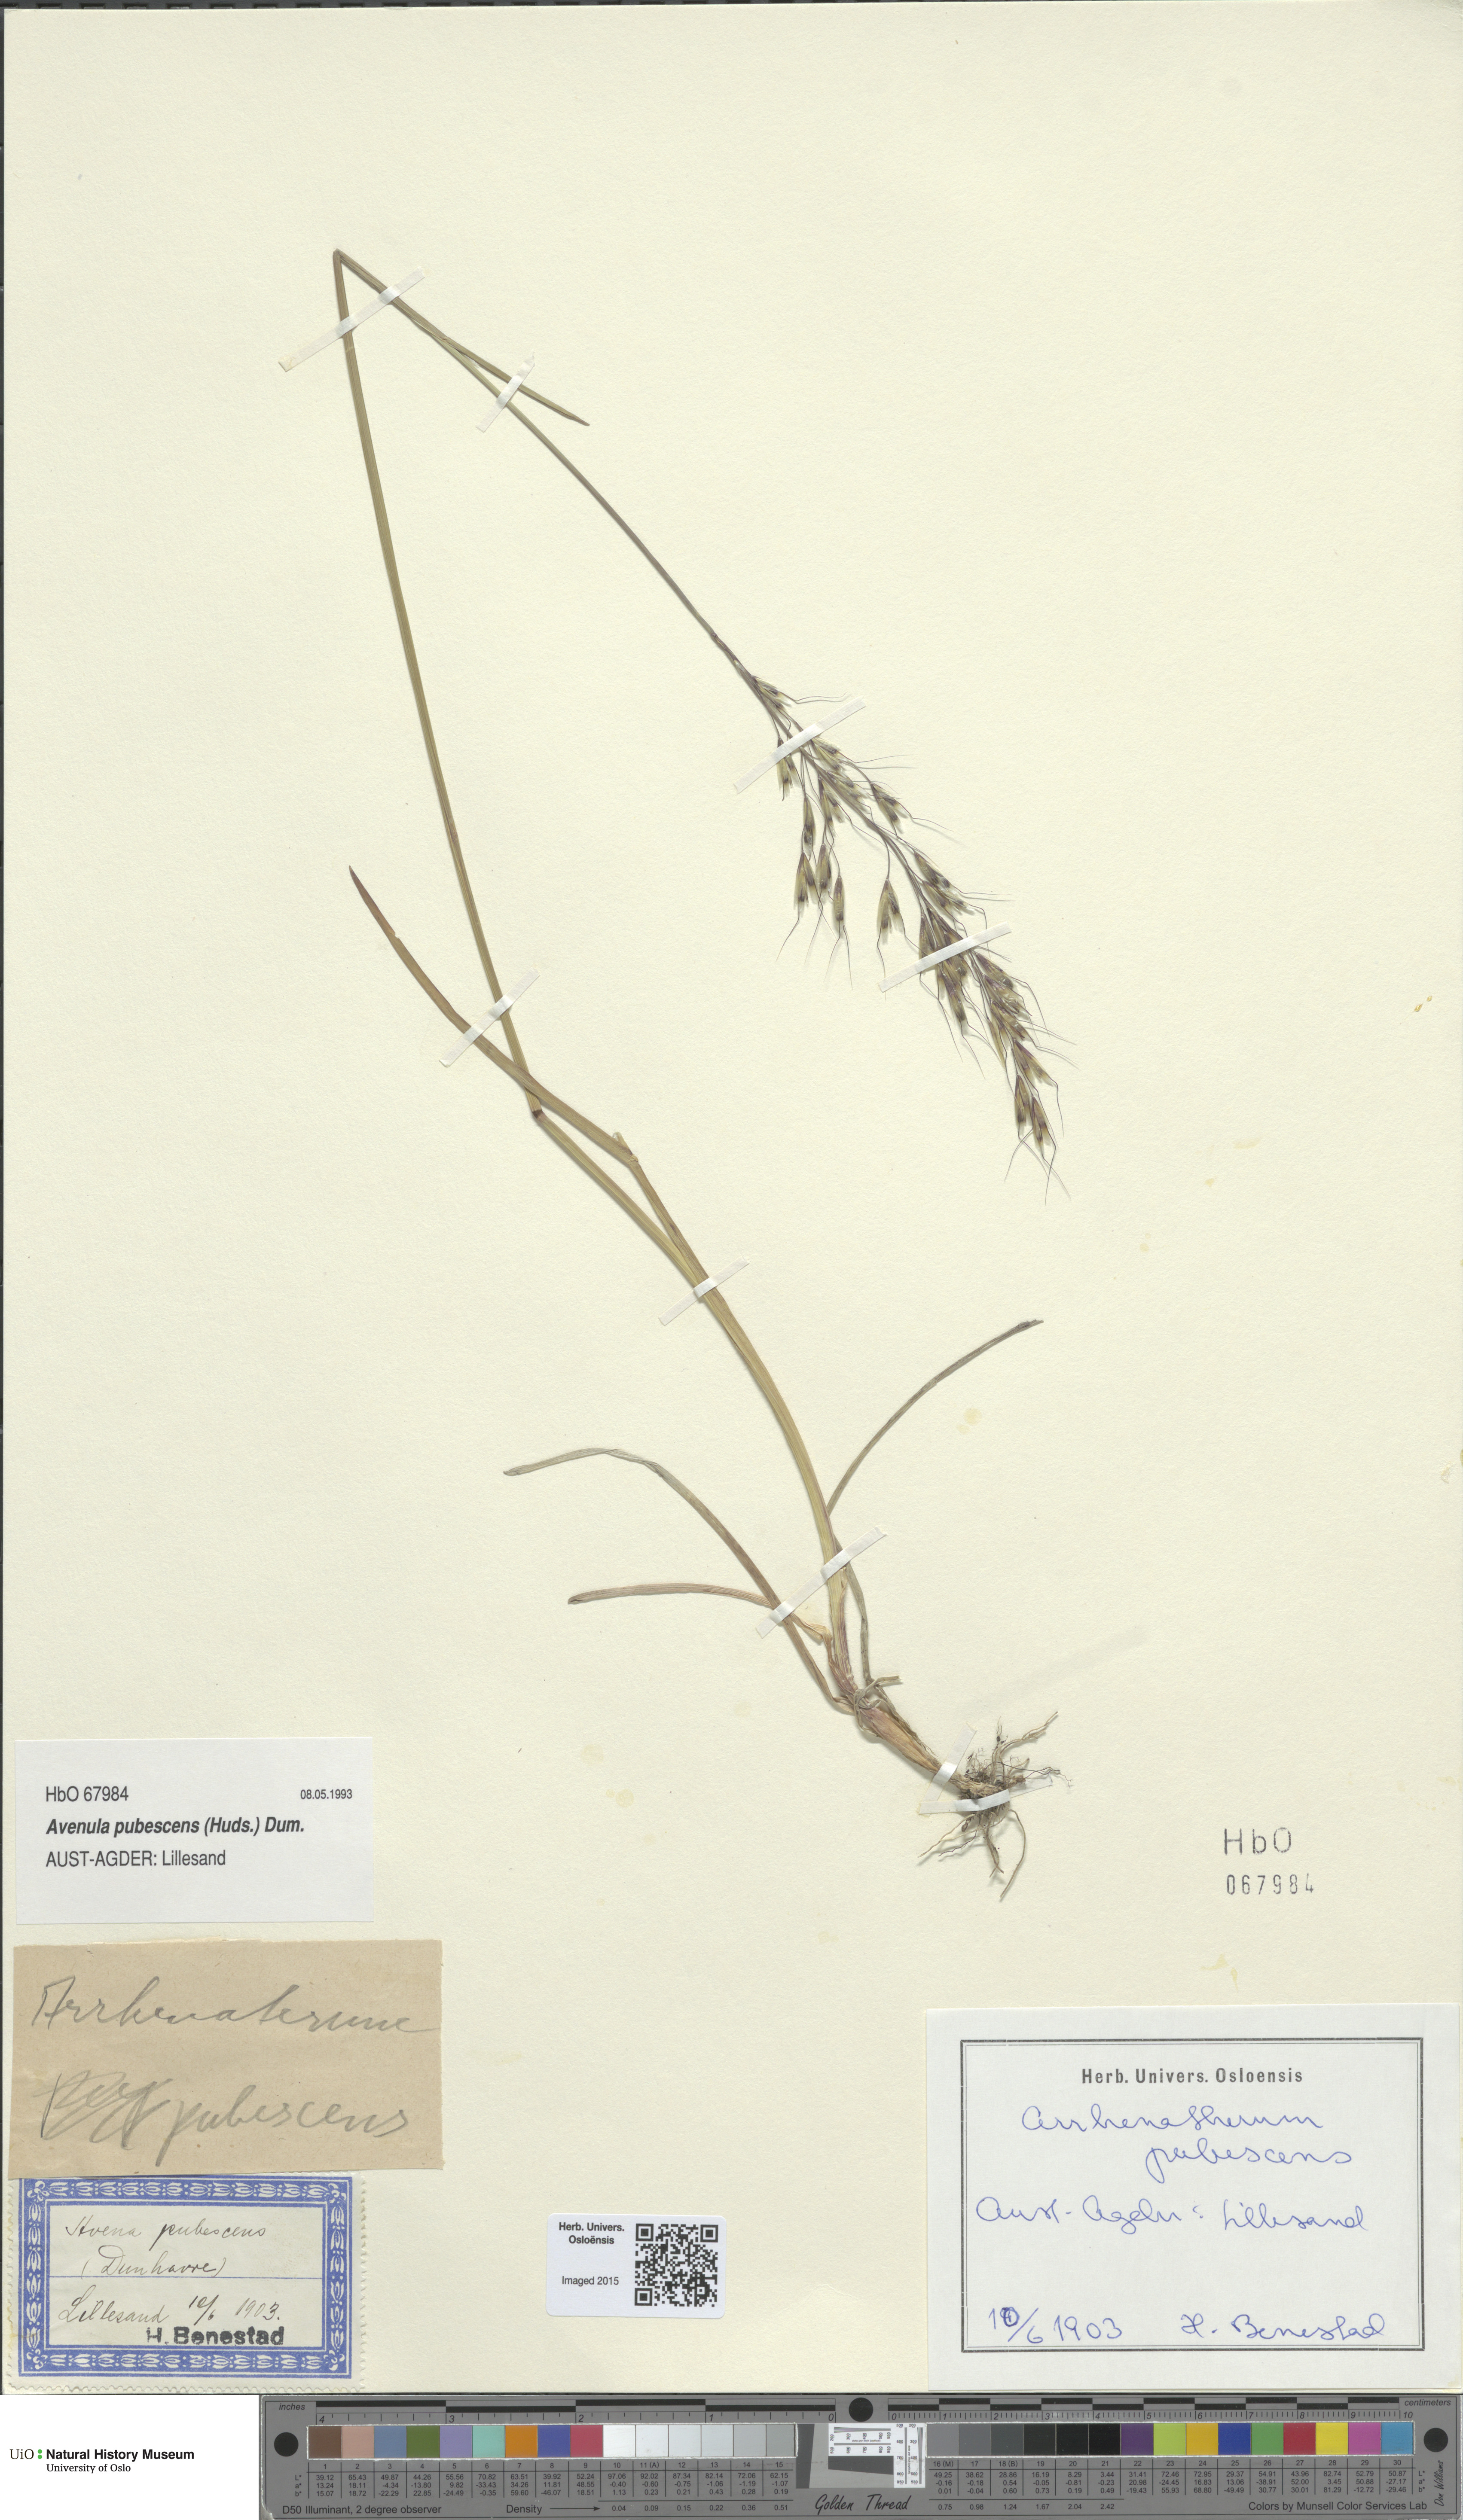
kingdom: Plantae
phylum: Tracheophyta
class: Liliopsida
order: Poales
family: Poaceae
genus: Avenula
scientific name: Avenula pubescens
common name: Downy alpine oatgrass
